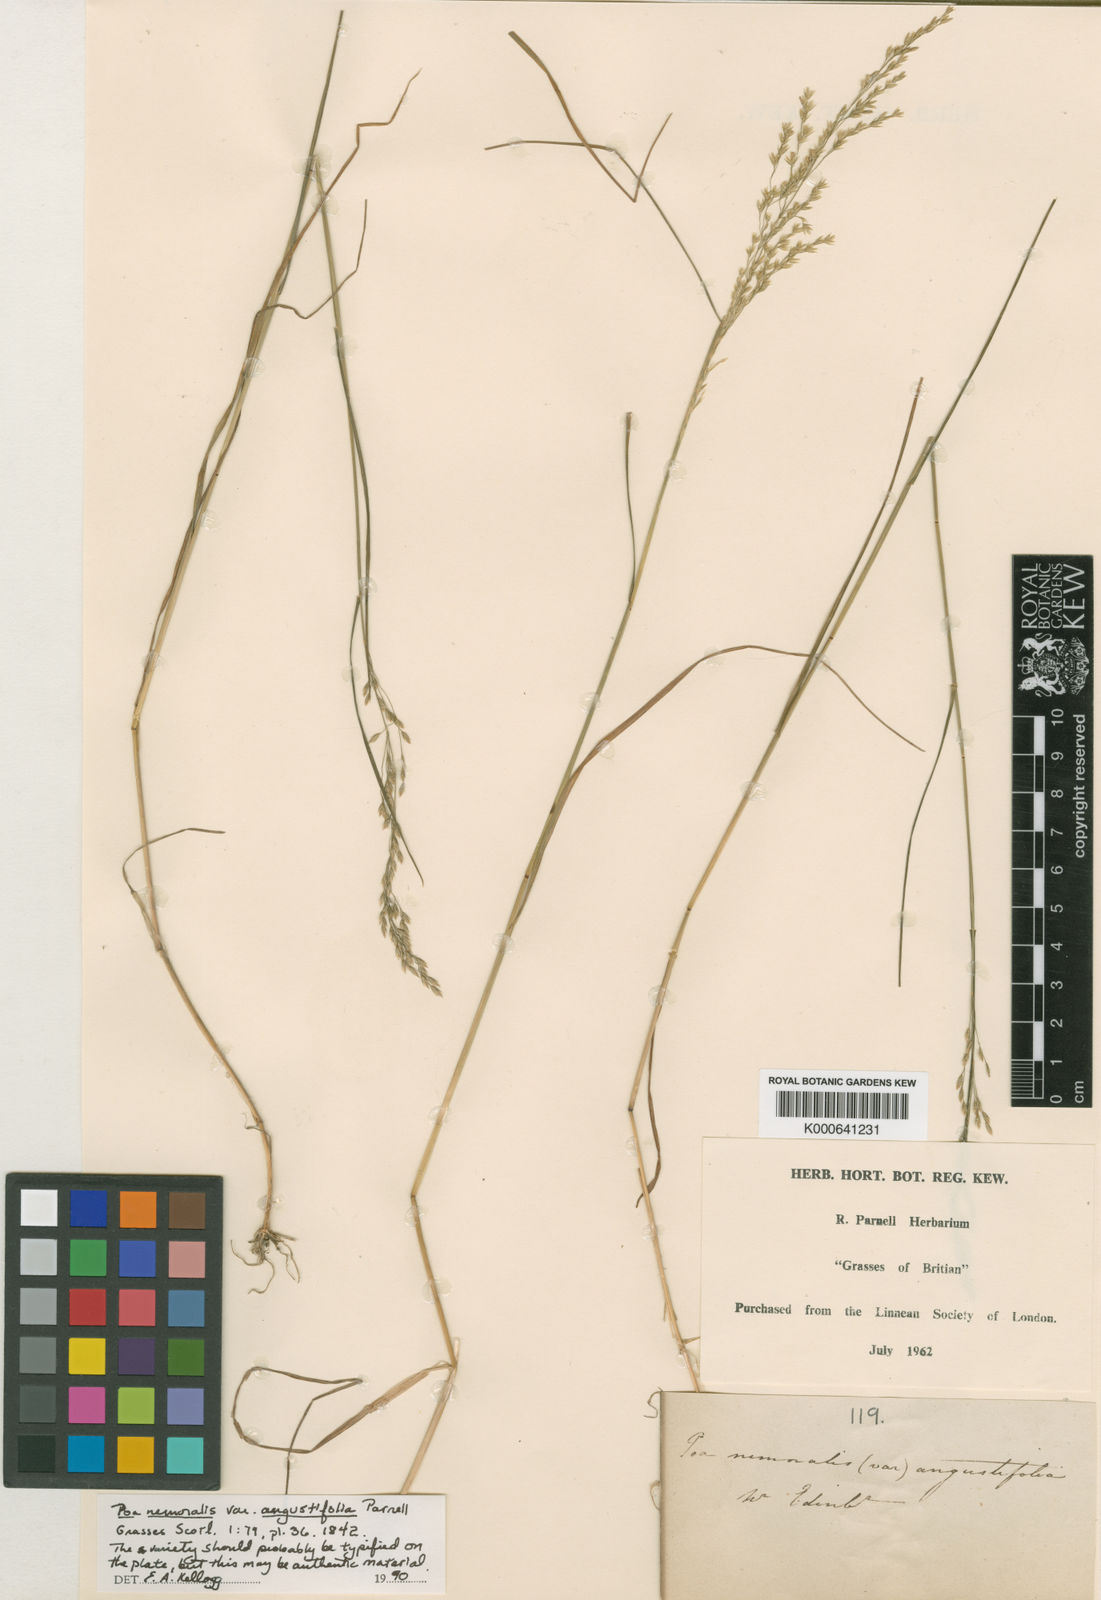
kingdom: Plantae
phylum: Tracheophyta
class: Liliopsida
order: Poales
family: Poaceae
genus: Poa
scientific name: Poa nemoralis
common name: Wood bluegrass
